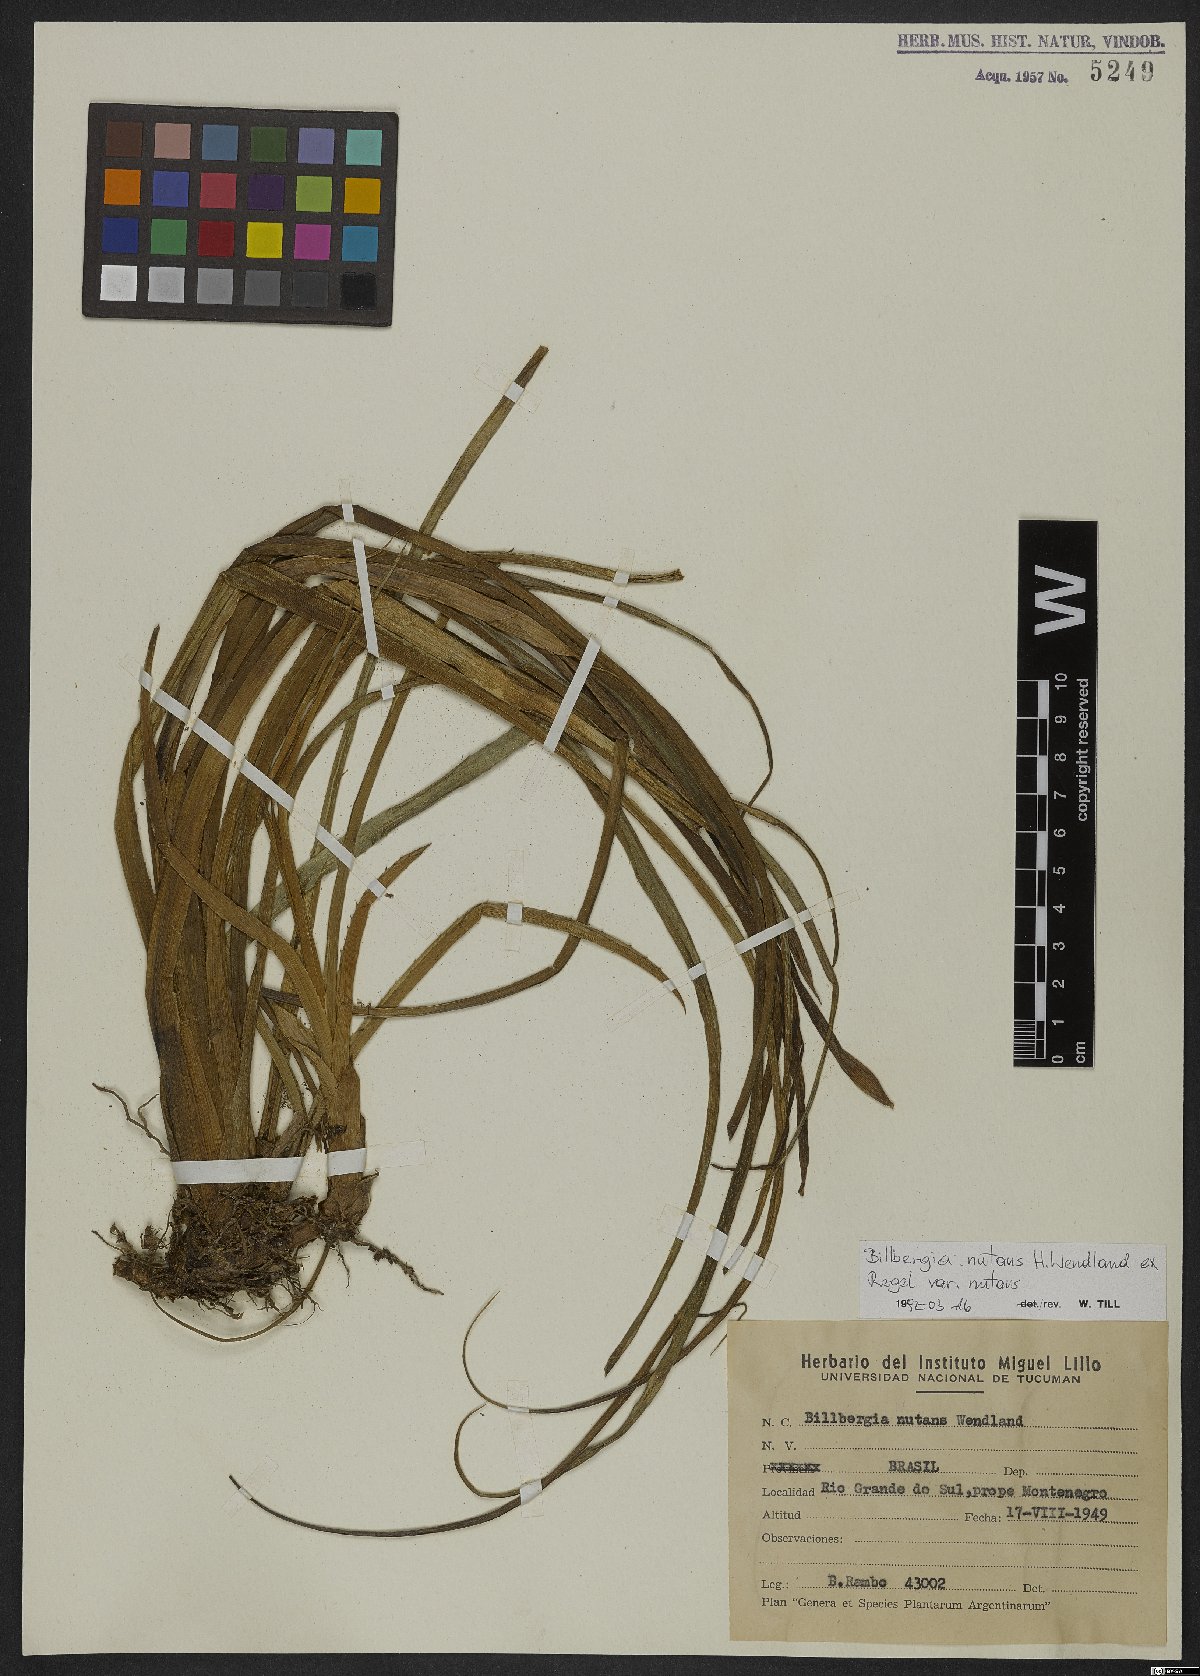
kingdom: Plantae
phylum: Tracheophyta
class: Liliopsida
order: Poales
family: Bromeliaceae
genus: Billbergia
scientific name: Billbergia nutans
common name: Friendship-plant
